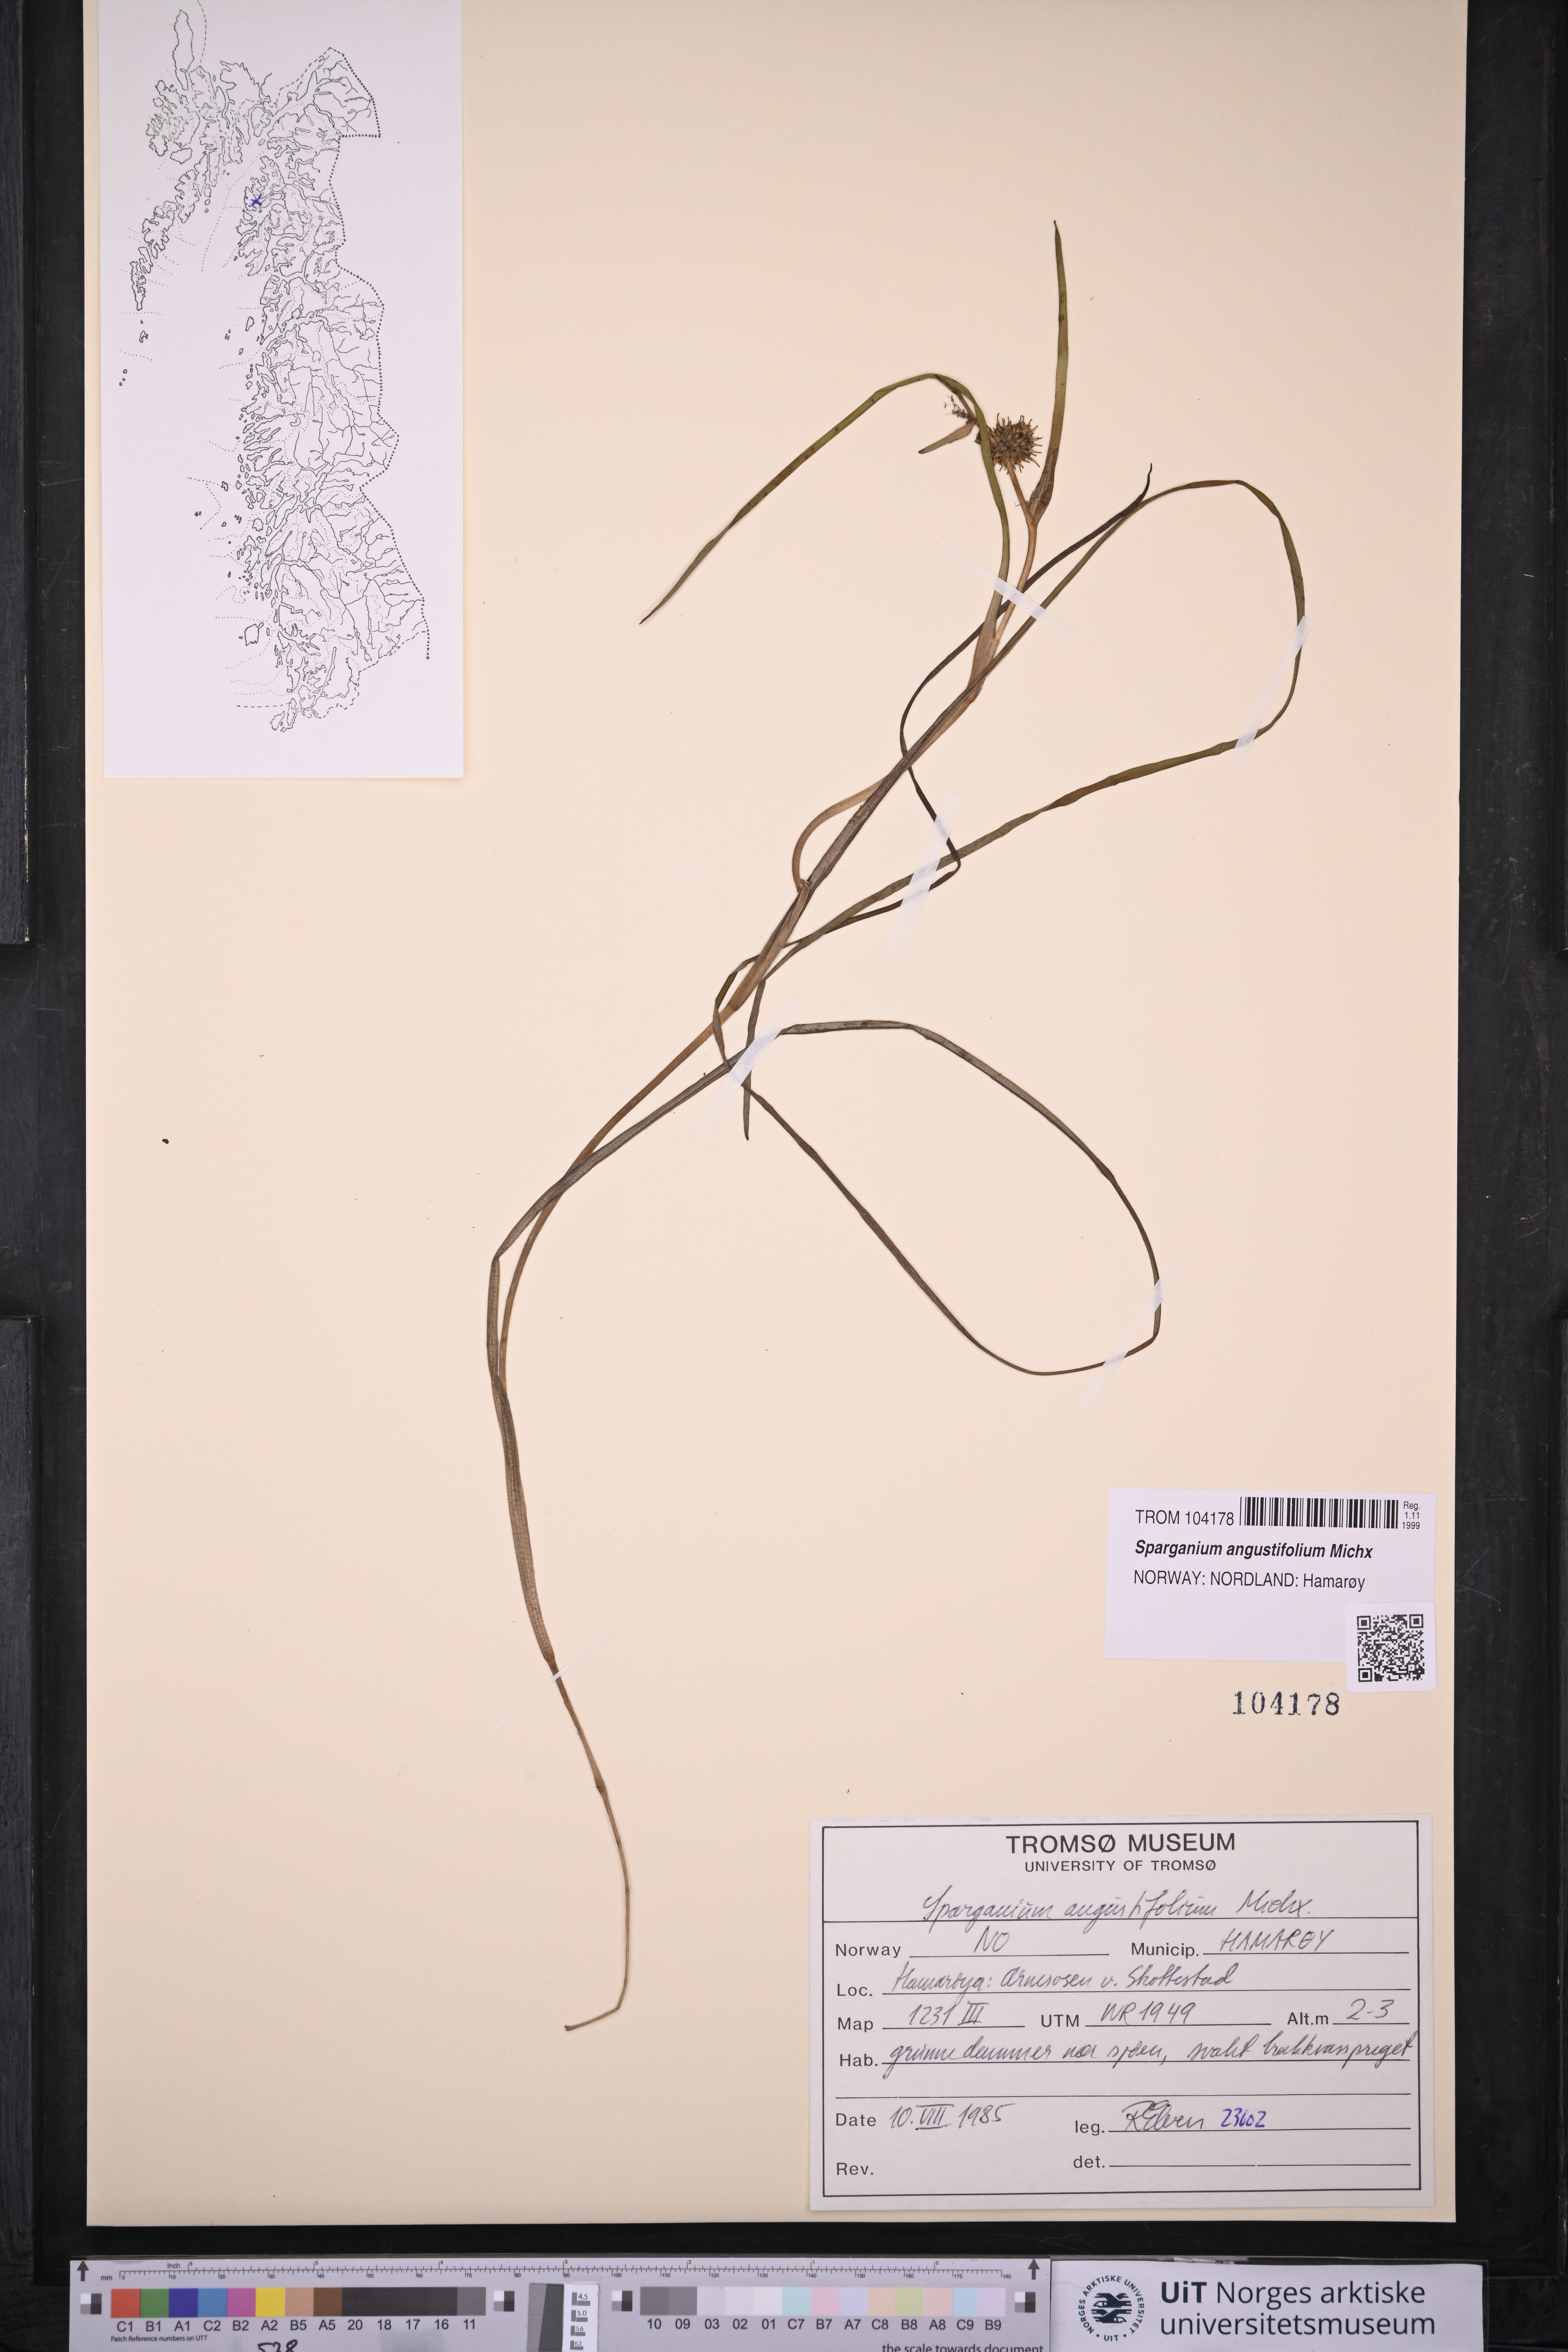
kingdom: Plantae
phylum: Tracheophyta
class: Liliopsida
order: Poales
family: Typhaceae
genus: Sparganium
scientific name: Sparganium angustifolium
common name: Floating bur-reed
